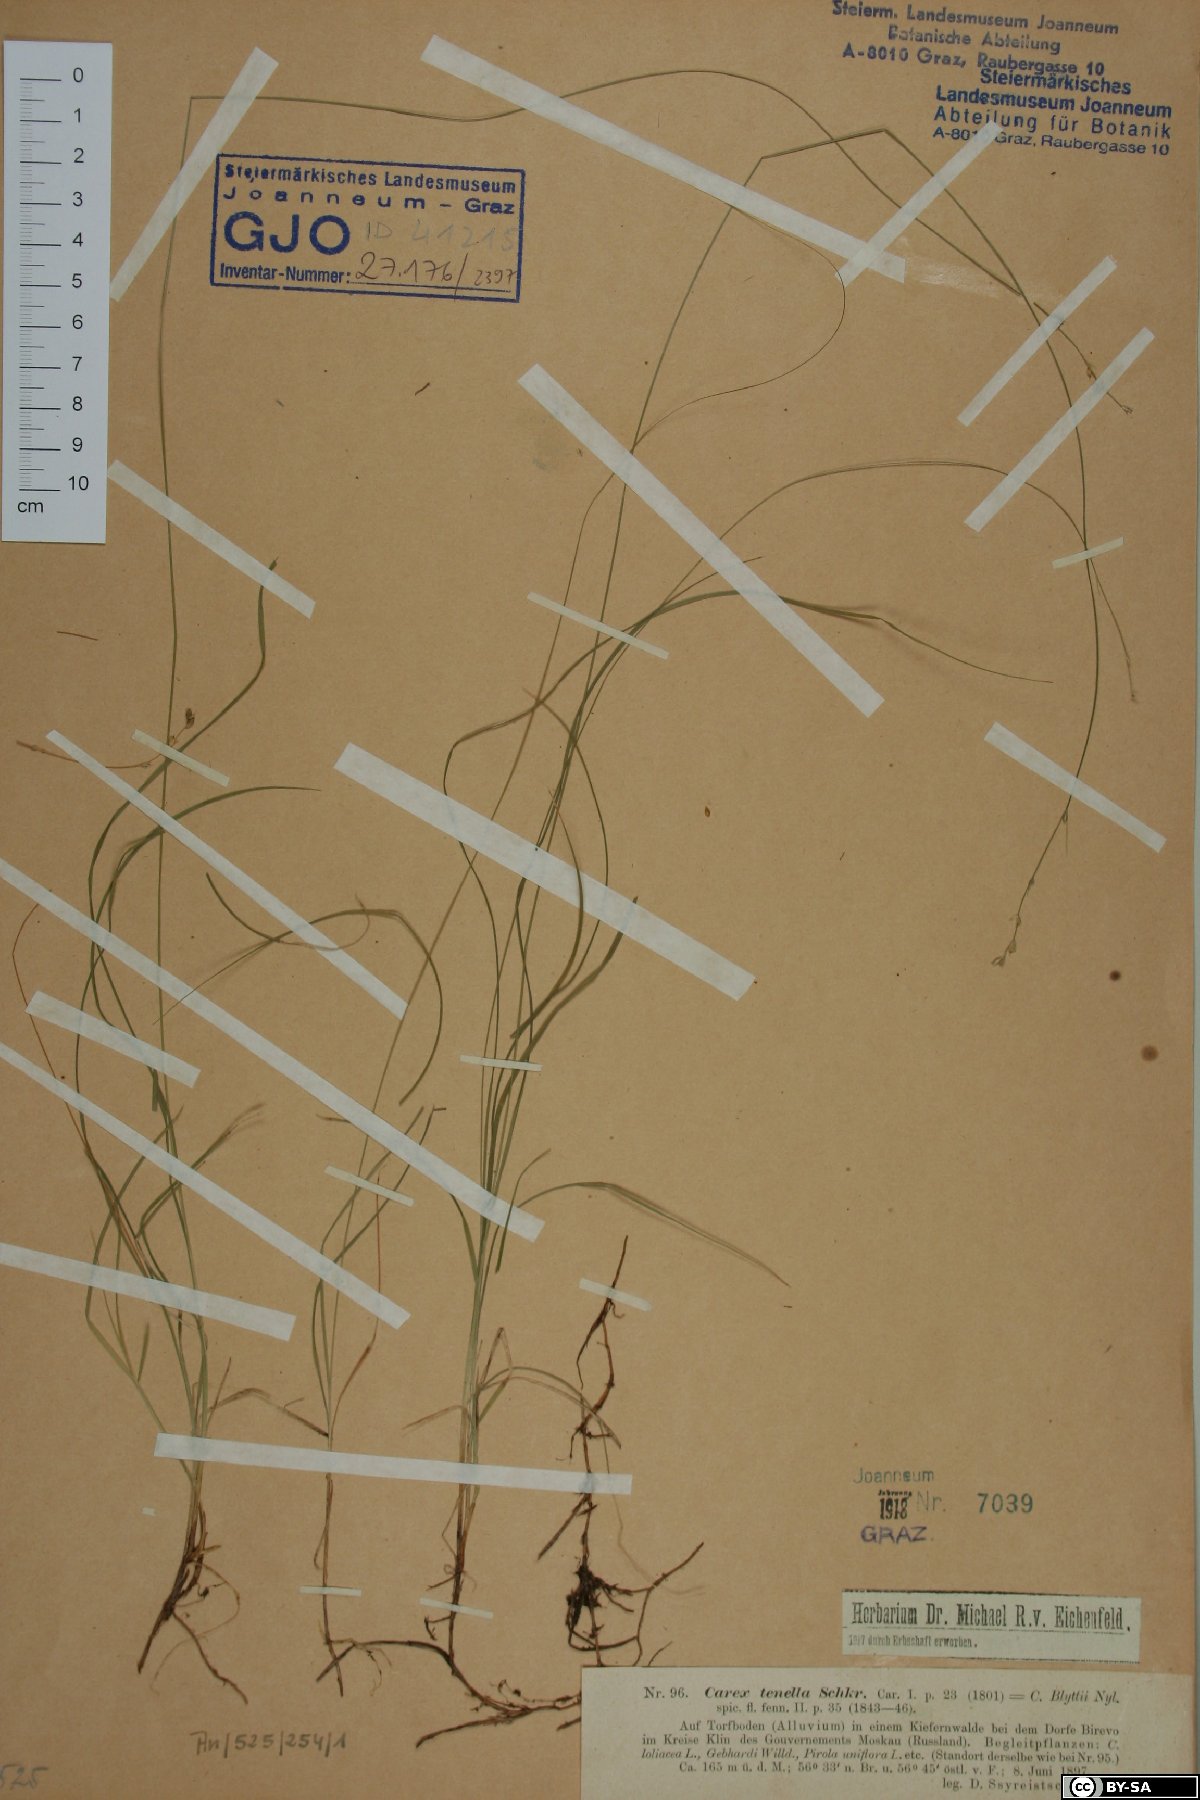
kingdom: Plantae
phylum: Tracheophyta
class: Liliopsida
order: Poales
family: Cyperaceae
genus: Carex
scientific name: Carex disperma
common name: Short-leaved sedge
